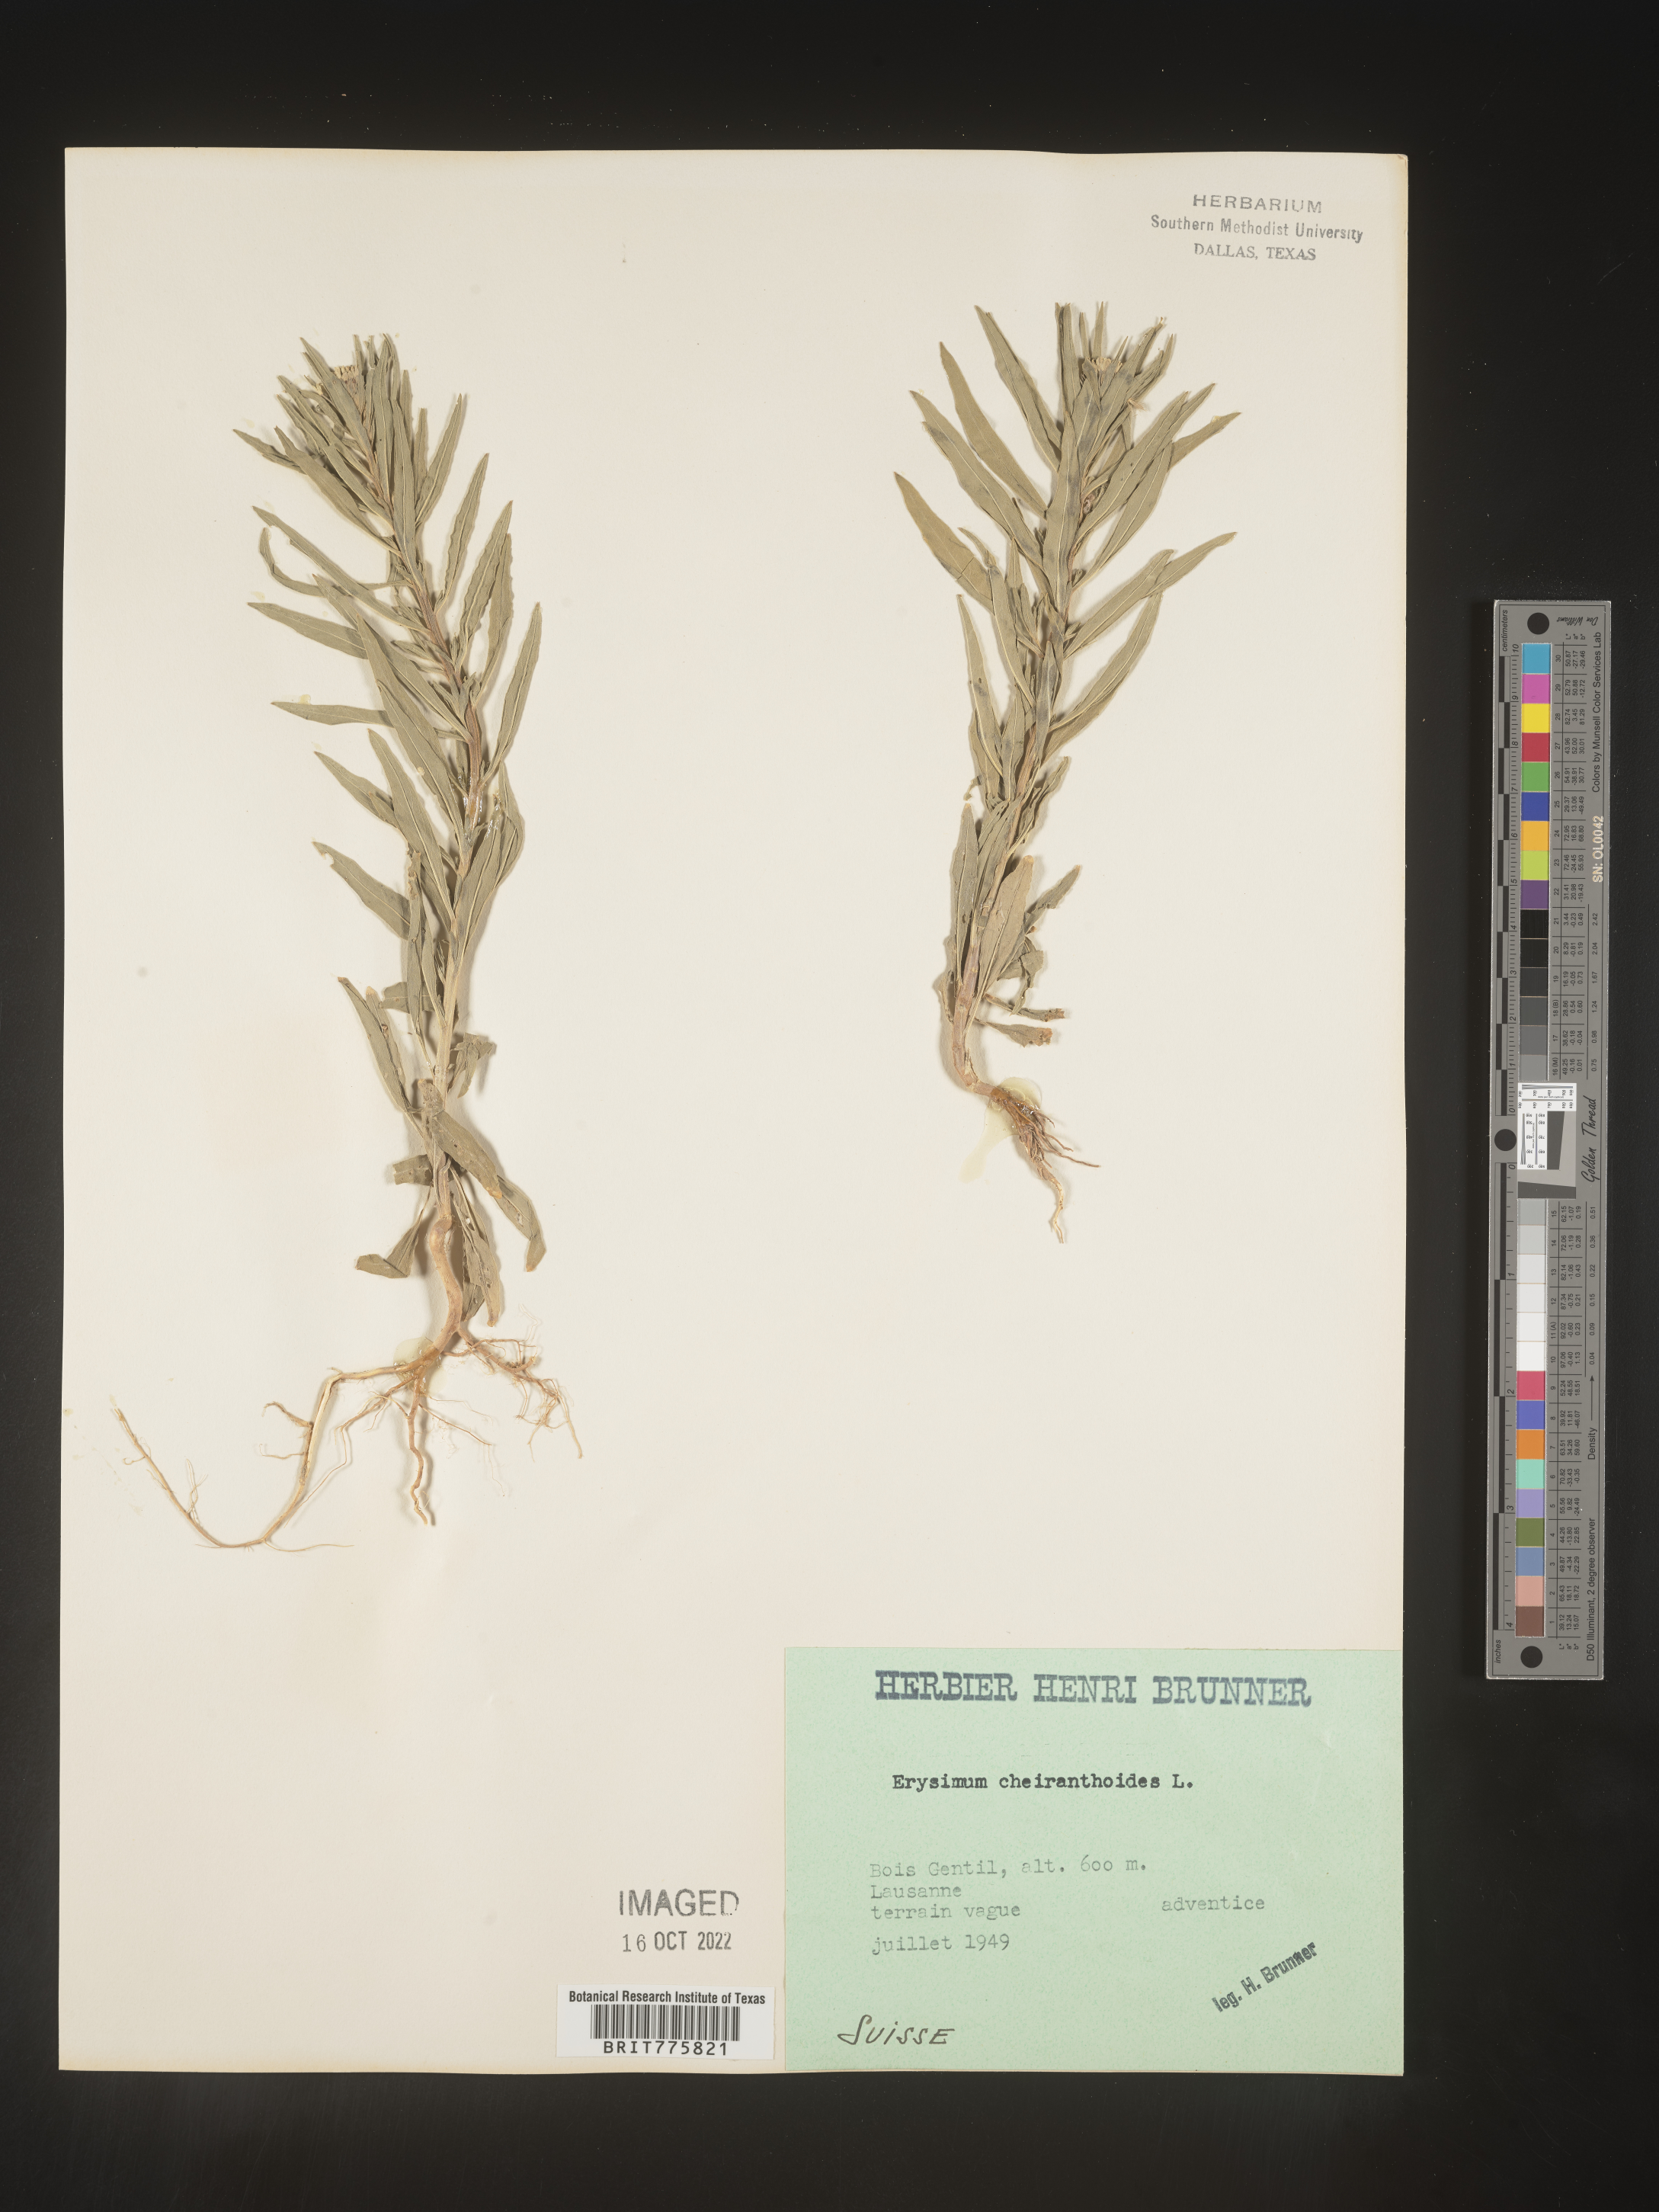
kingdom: Plantae
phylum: Tracheophyta
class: Magnoliopsida
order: Brassicales
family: Brassicaceae
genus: Erysimum
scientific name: Erysimum
